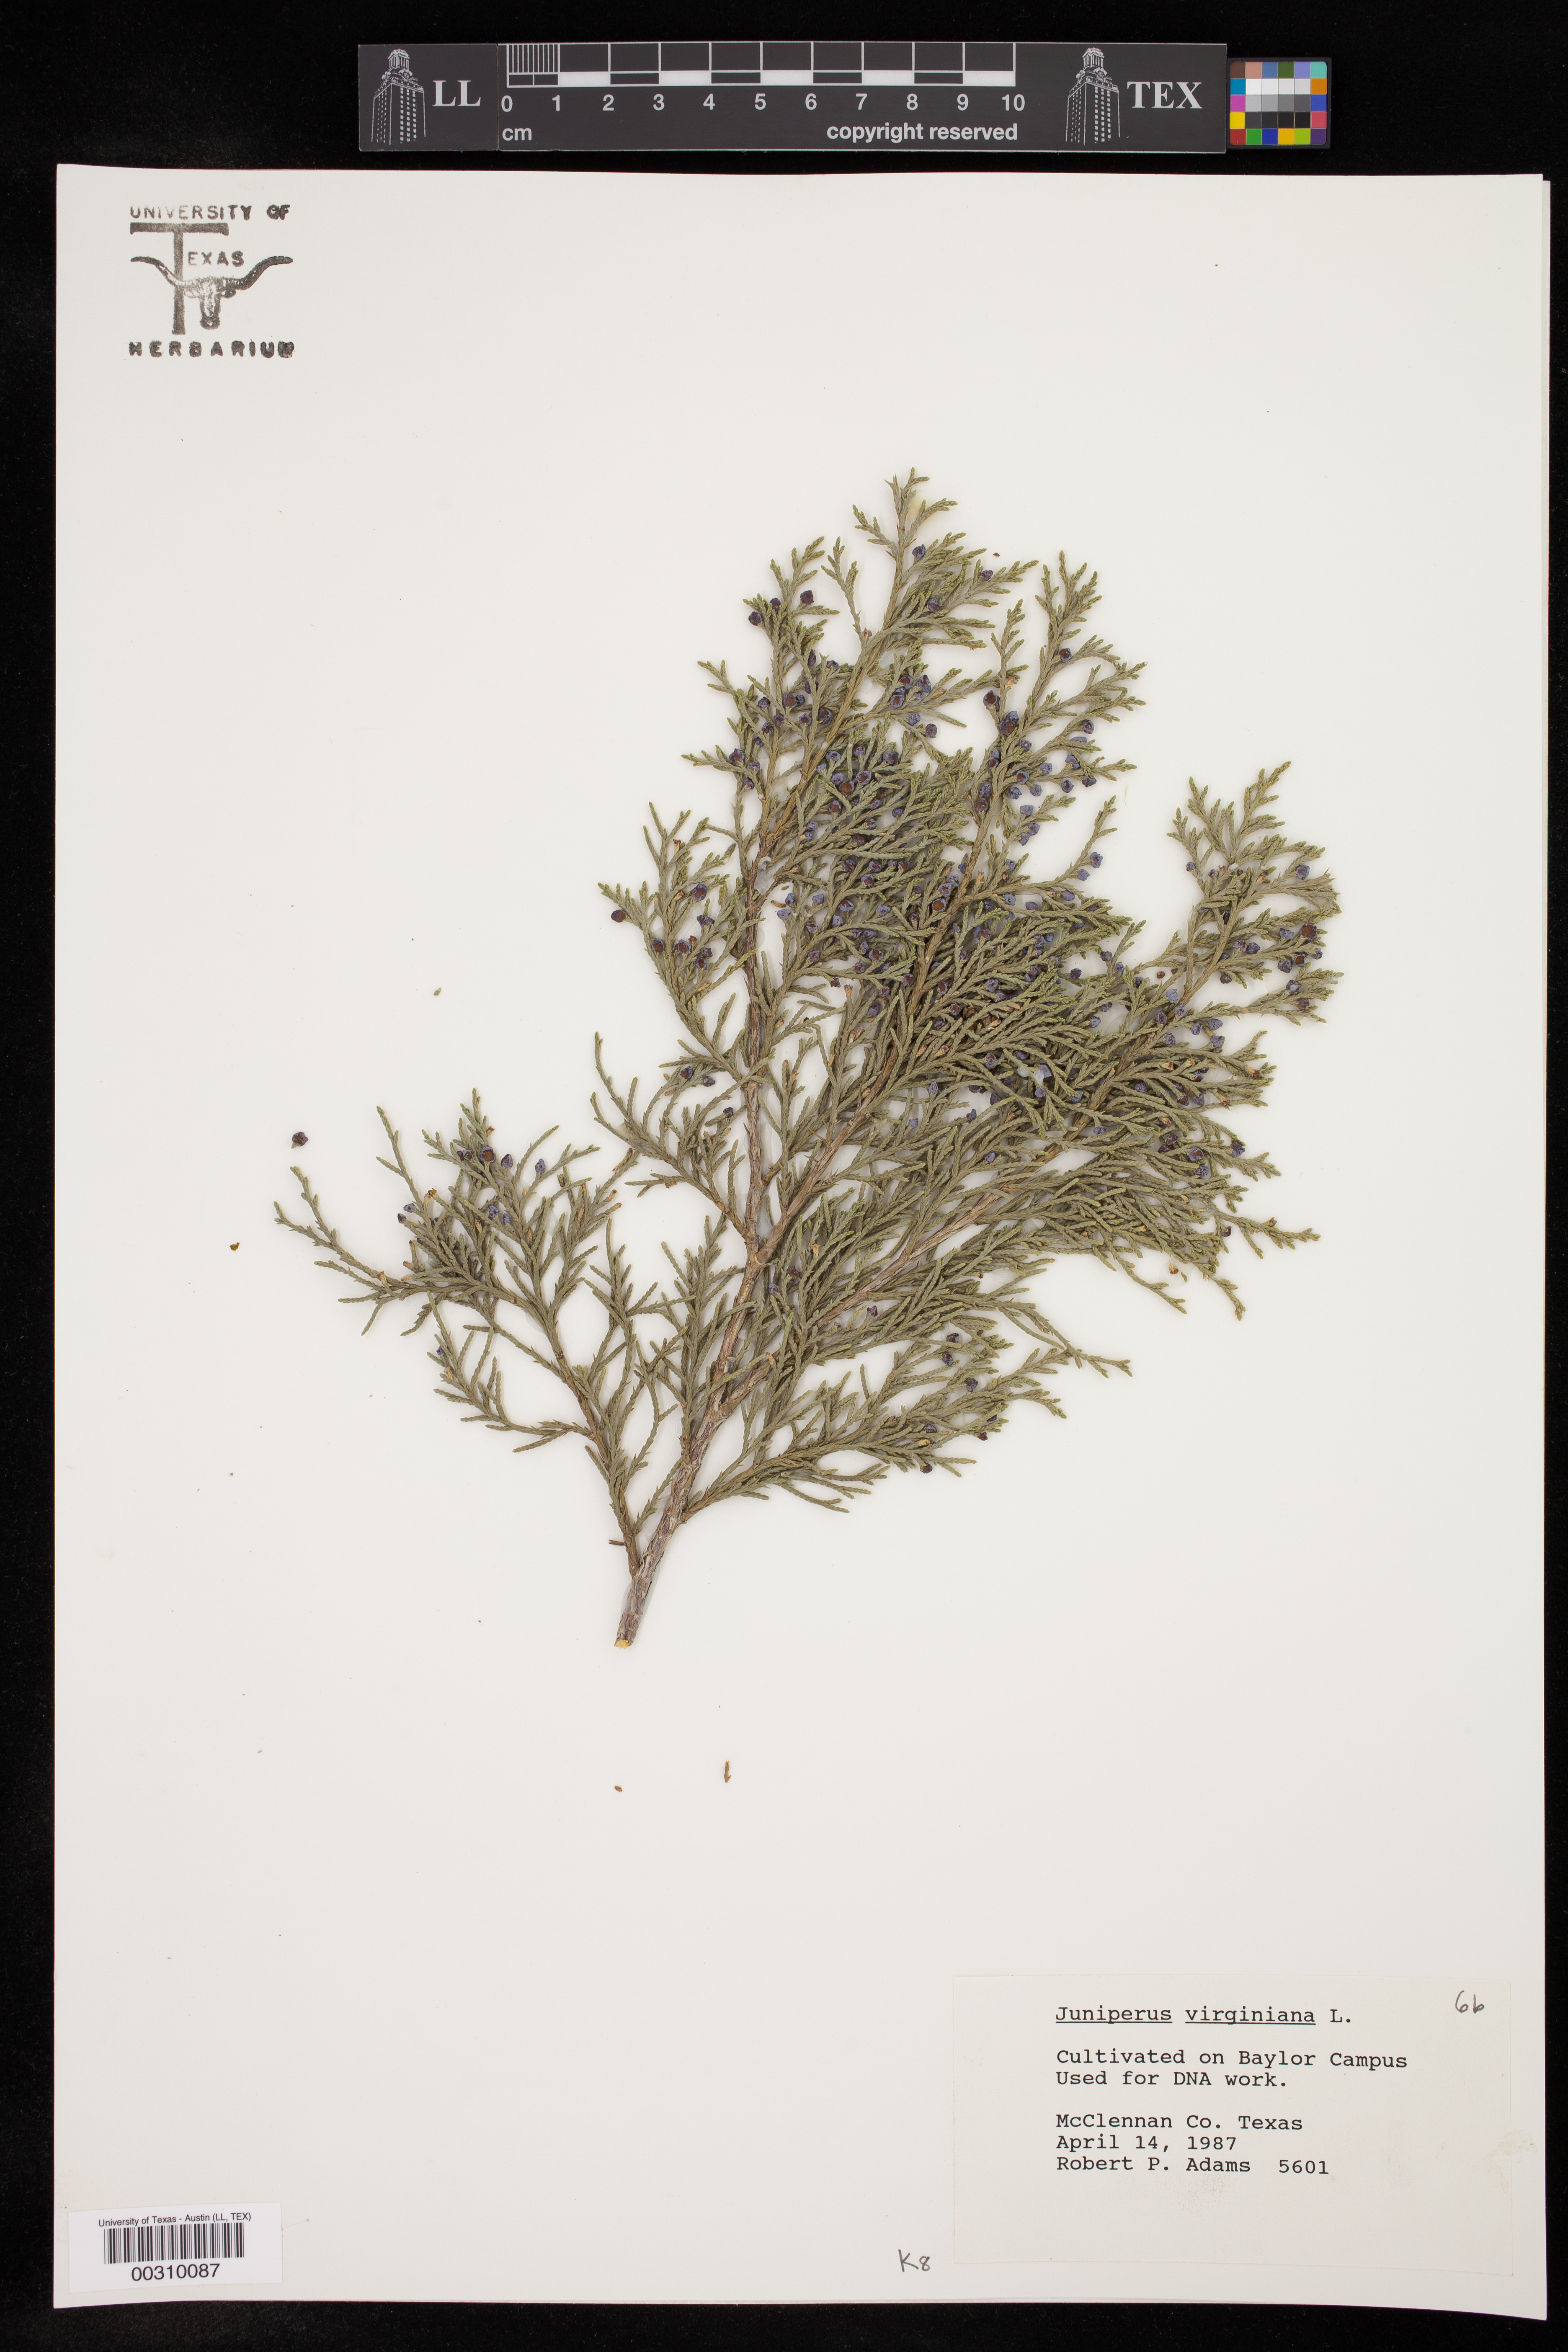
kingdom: Plantae
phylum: Tracheophyta
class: Pinopsida
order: Pinales
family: Cupressaceae
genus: Juniperus
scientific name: Juniperus virginiana
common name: Red juniper
